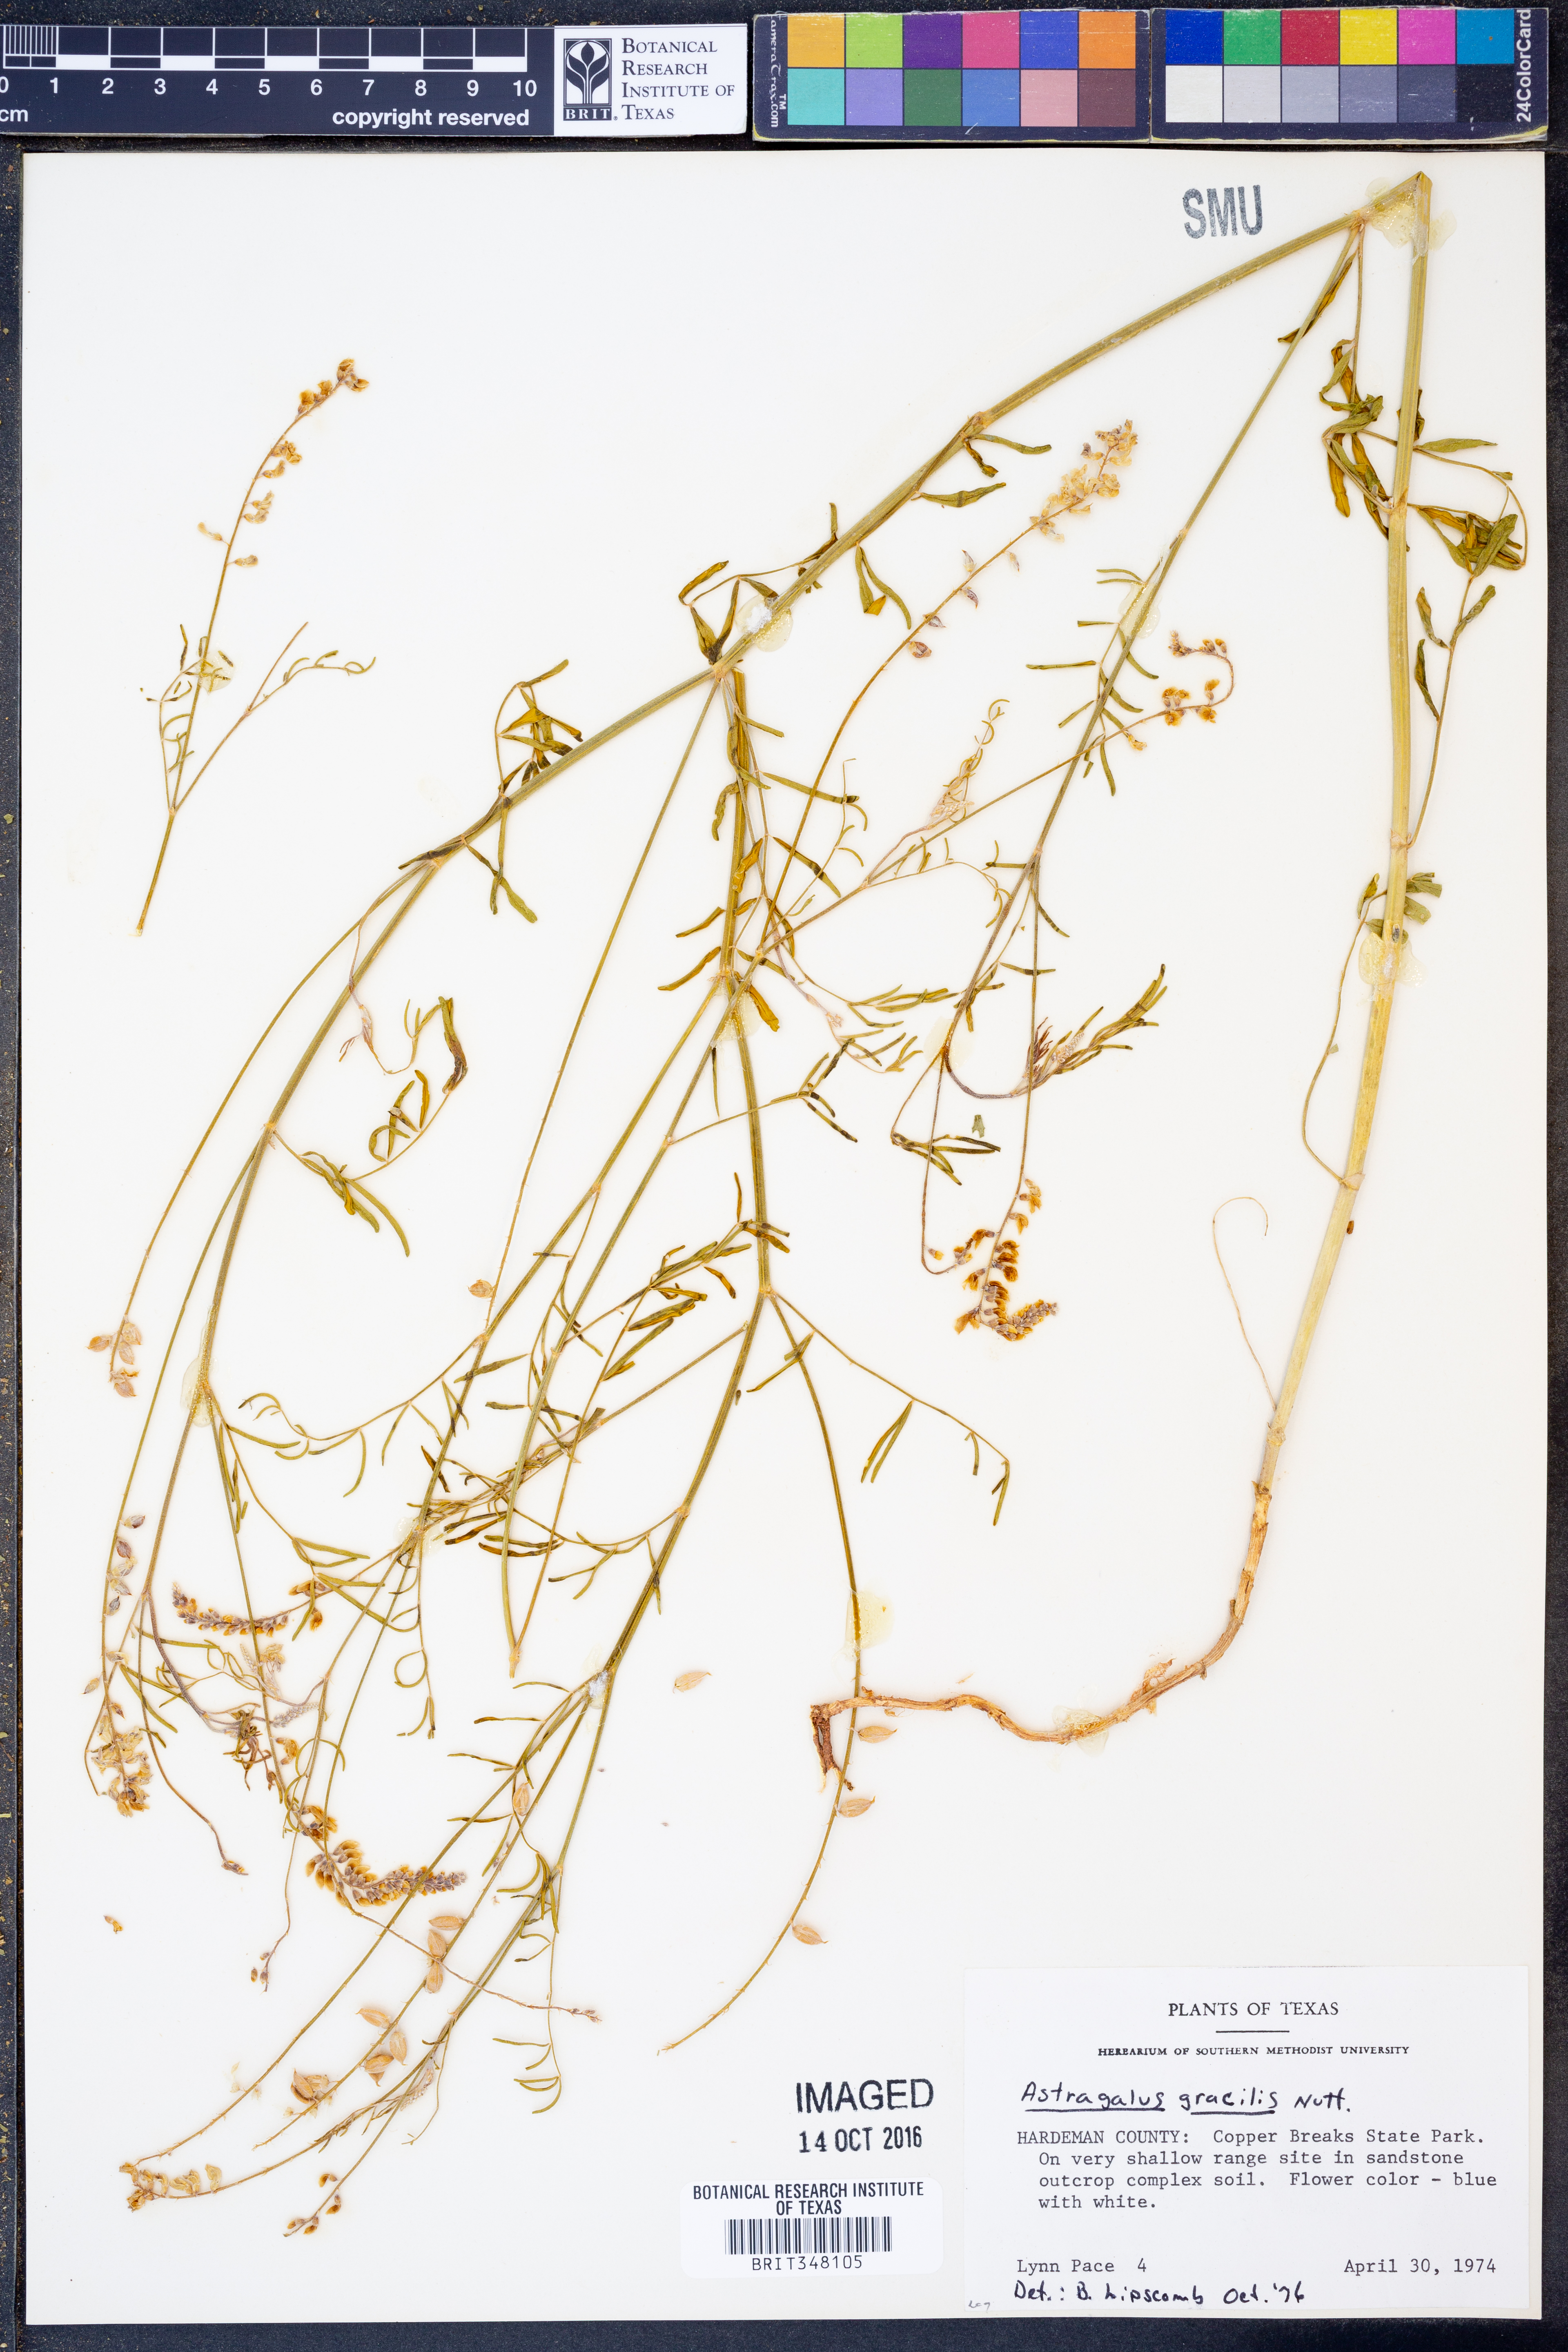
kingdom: Plantae
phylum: Tracheophyta
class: Magnoliopsida
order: Fabales
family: Fabaceae
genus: Astragalus
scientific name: Astragalus gracilis
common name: Slender milk-vetch
